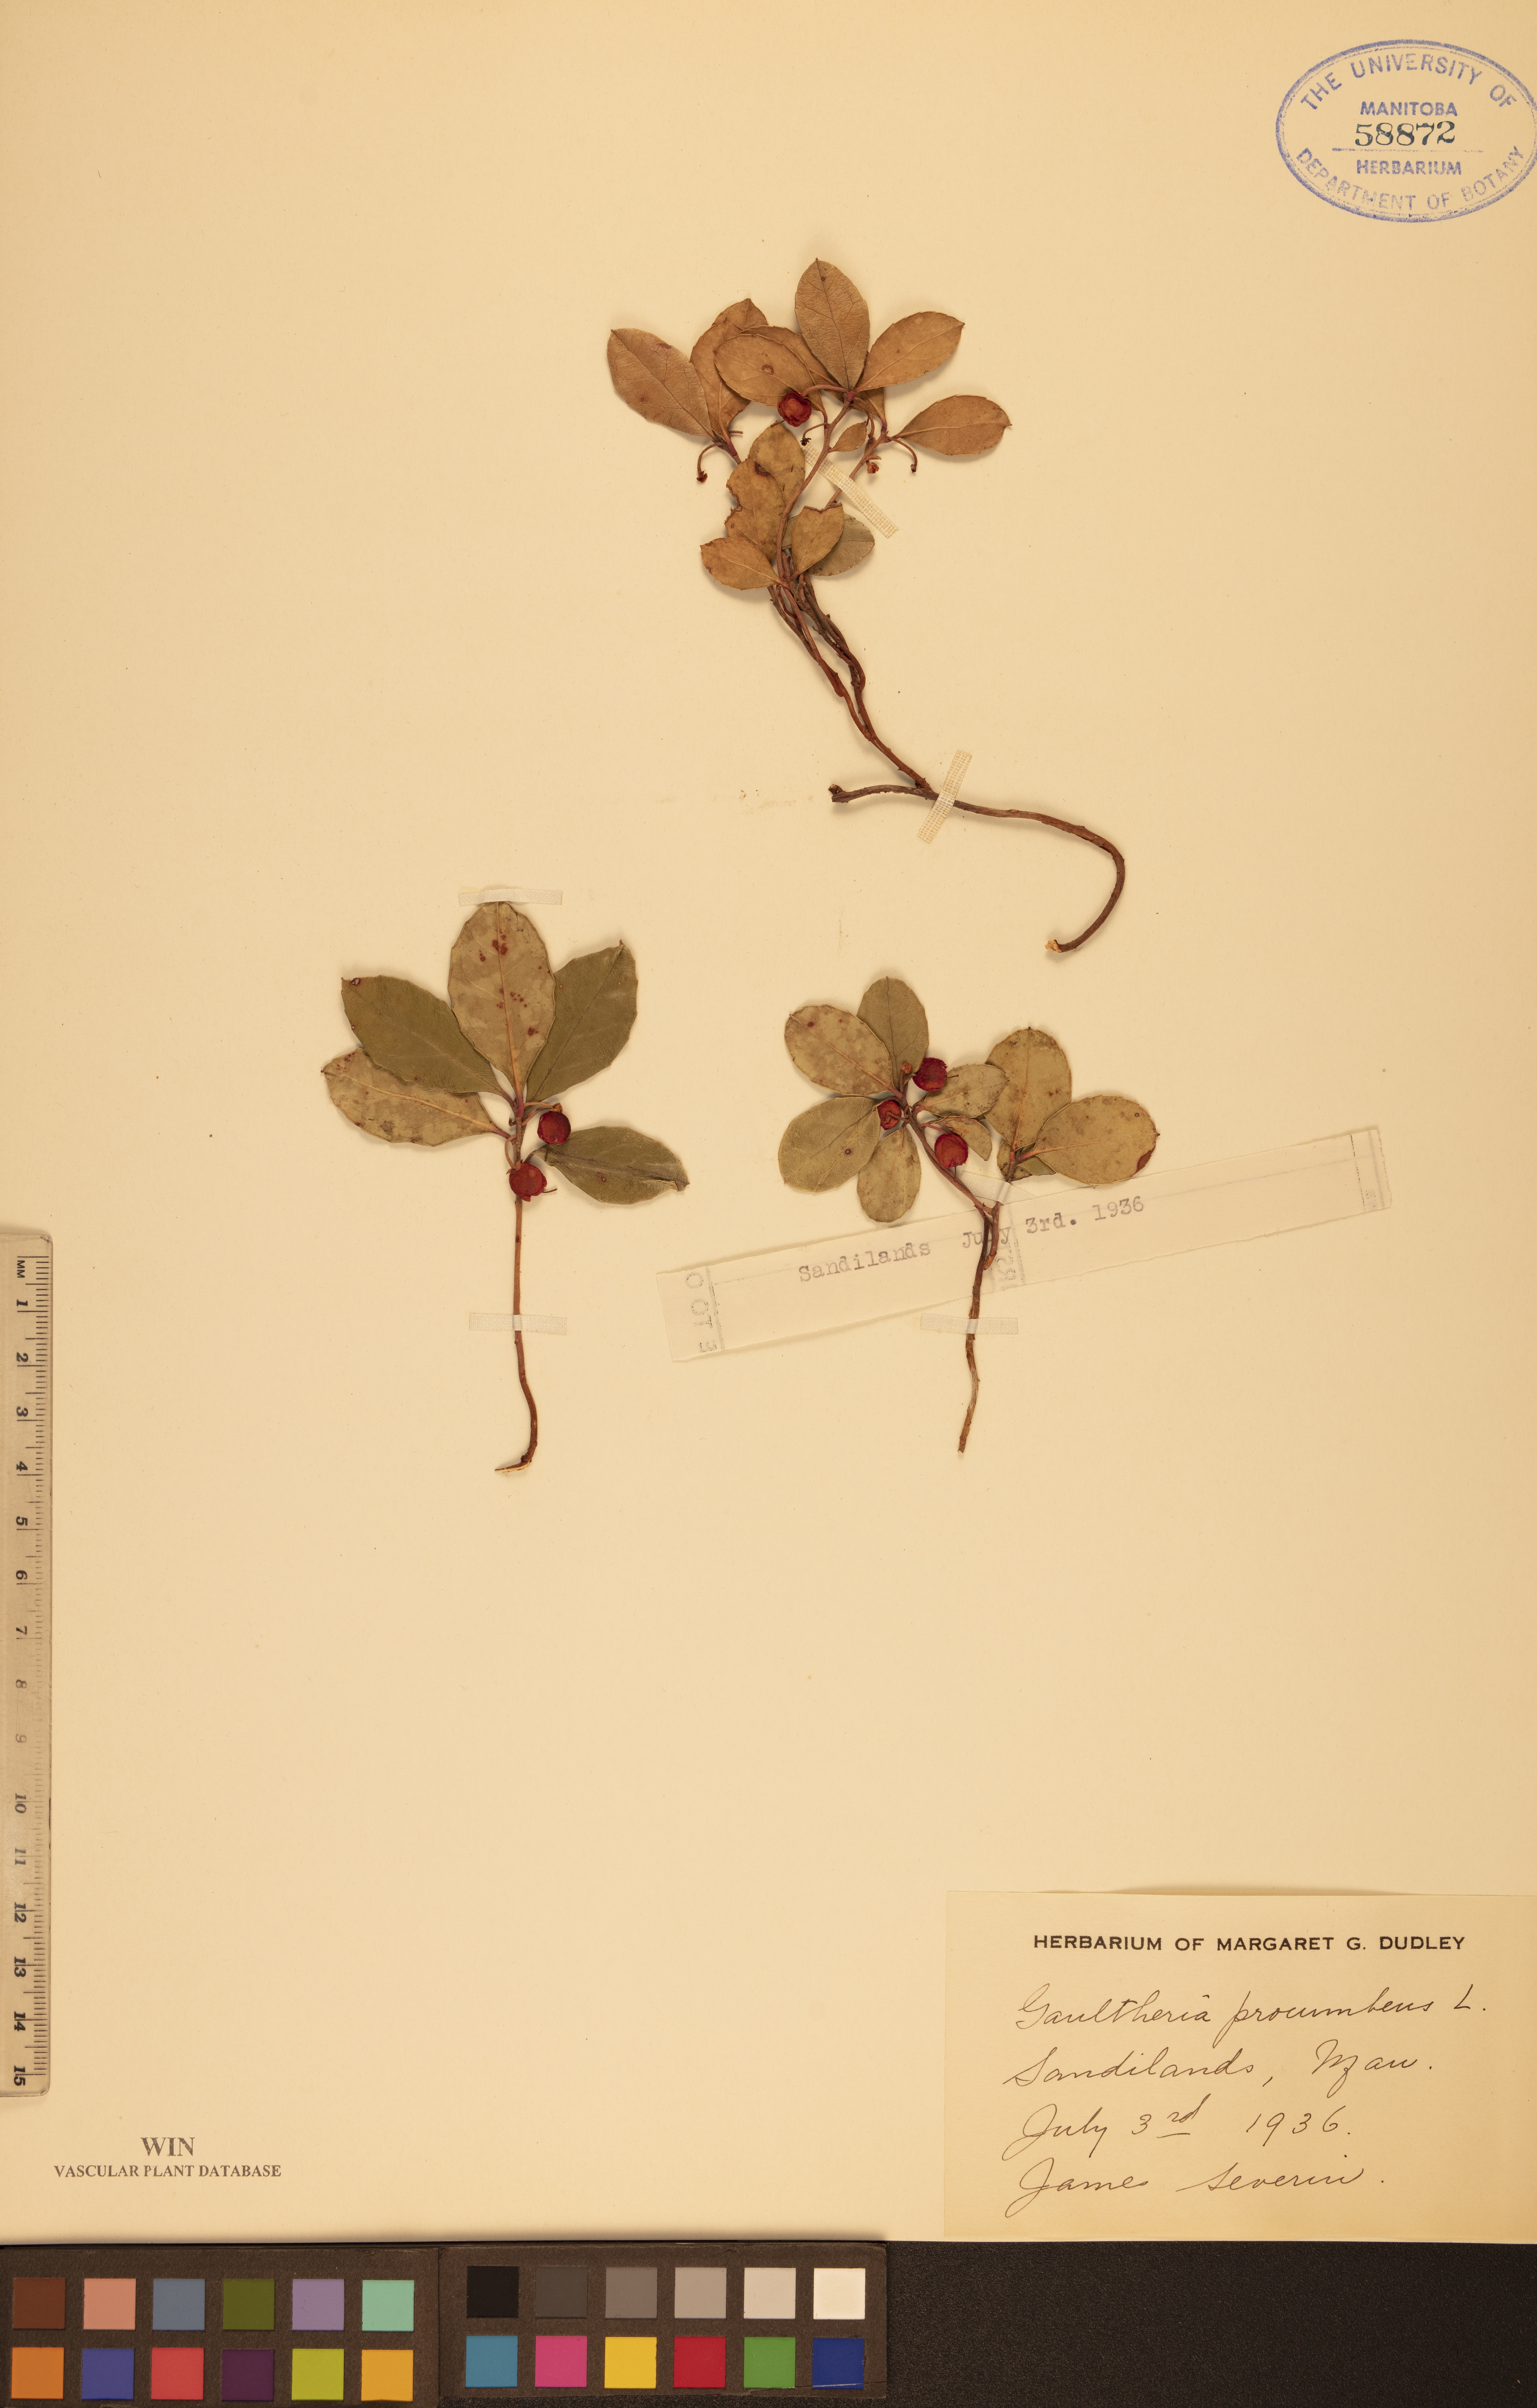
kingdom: Plantae
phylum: Tracheophyta
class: Magnoliopsida
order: Ericales
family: Ericaceae
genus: Gaultheria
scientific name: Gaultheria procumbens
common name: Checkerberry
